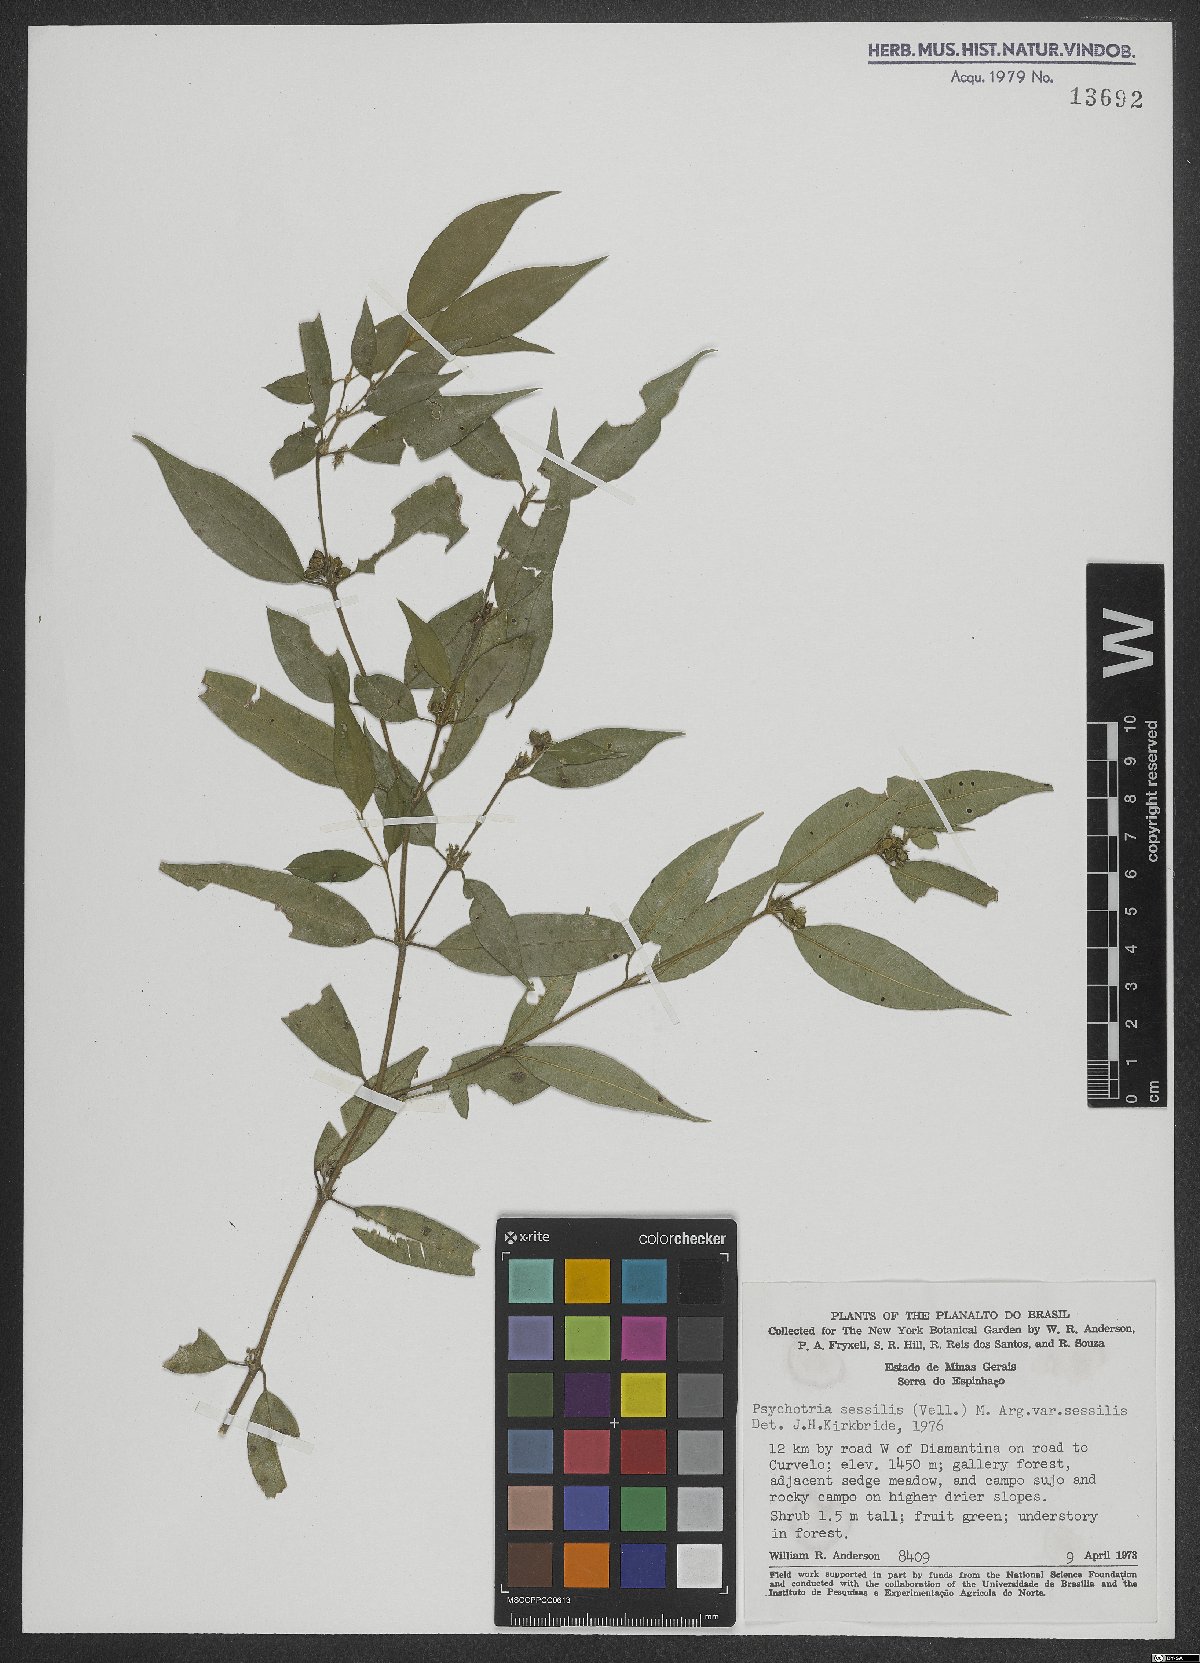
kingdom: Plantae
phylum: Tracheophyta
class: Magnoliopsida
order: Gentianales
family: Rubiaceae
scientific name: Rubiaceae
